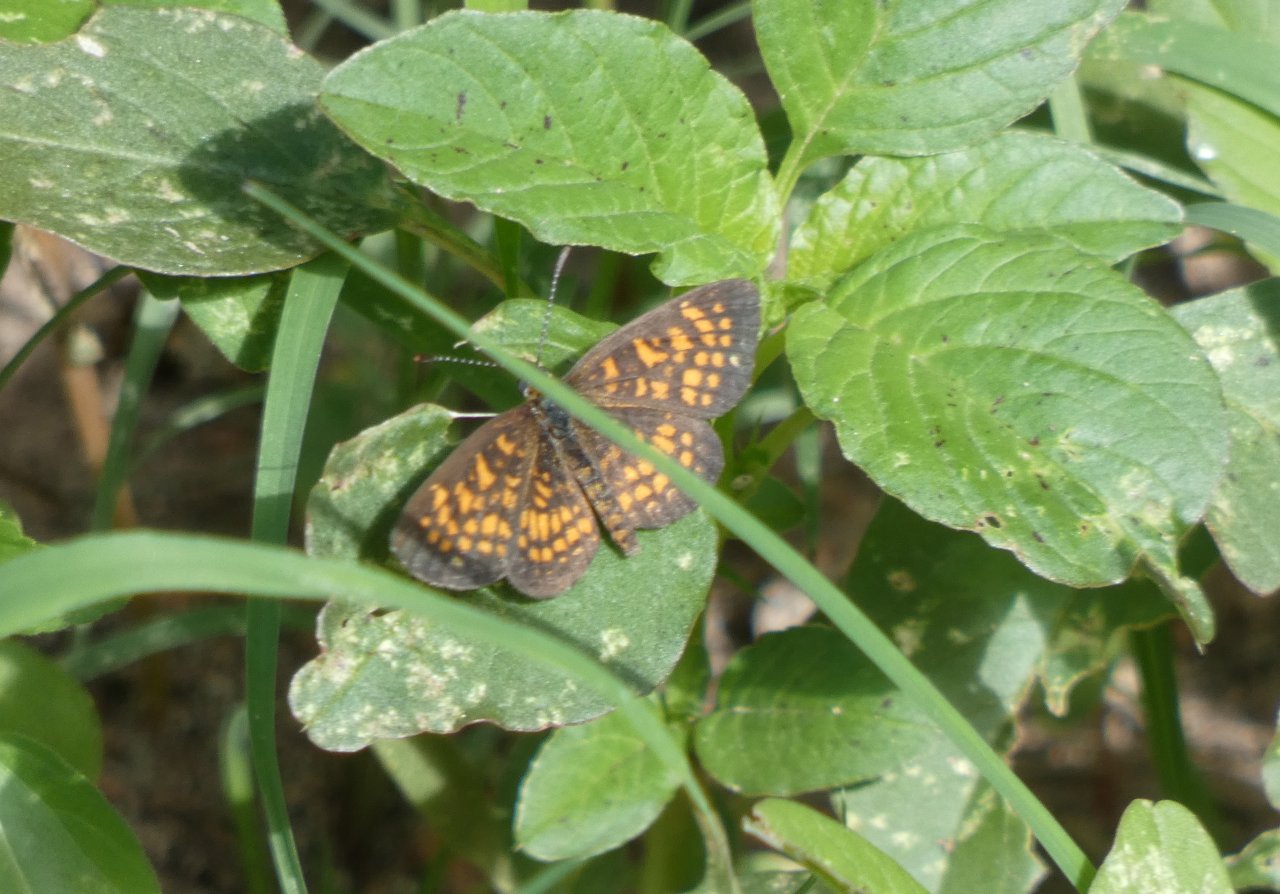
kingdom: Animalia
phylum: Arthropoda
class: Insecta
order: Lepidoptera
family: Nymphalidae
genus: Texola
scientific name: Texola elada
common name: Elada Checkerspot
